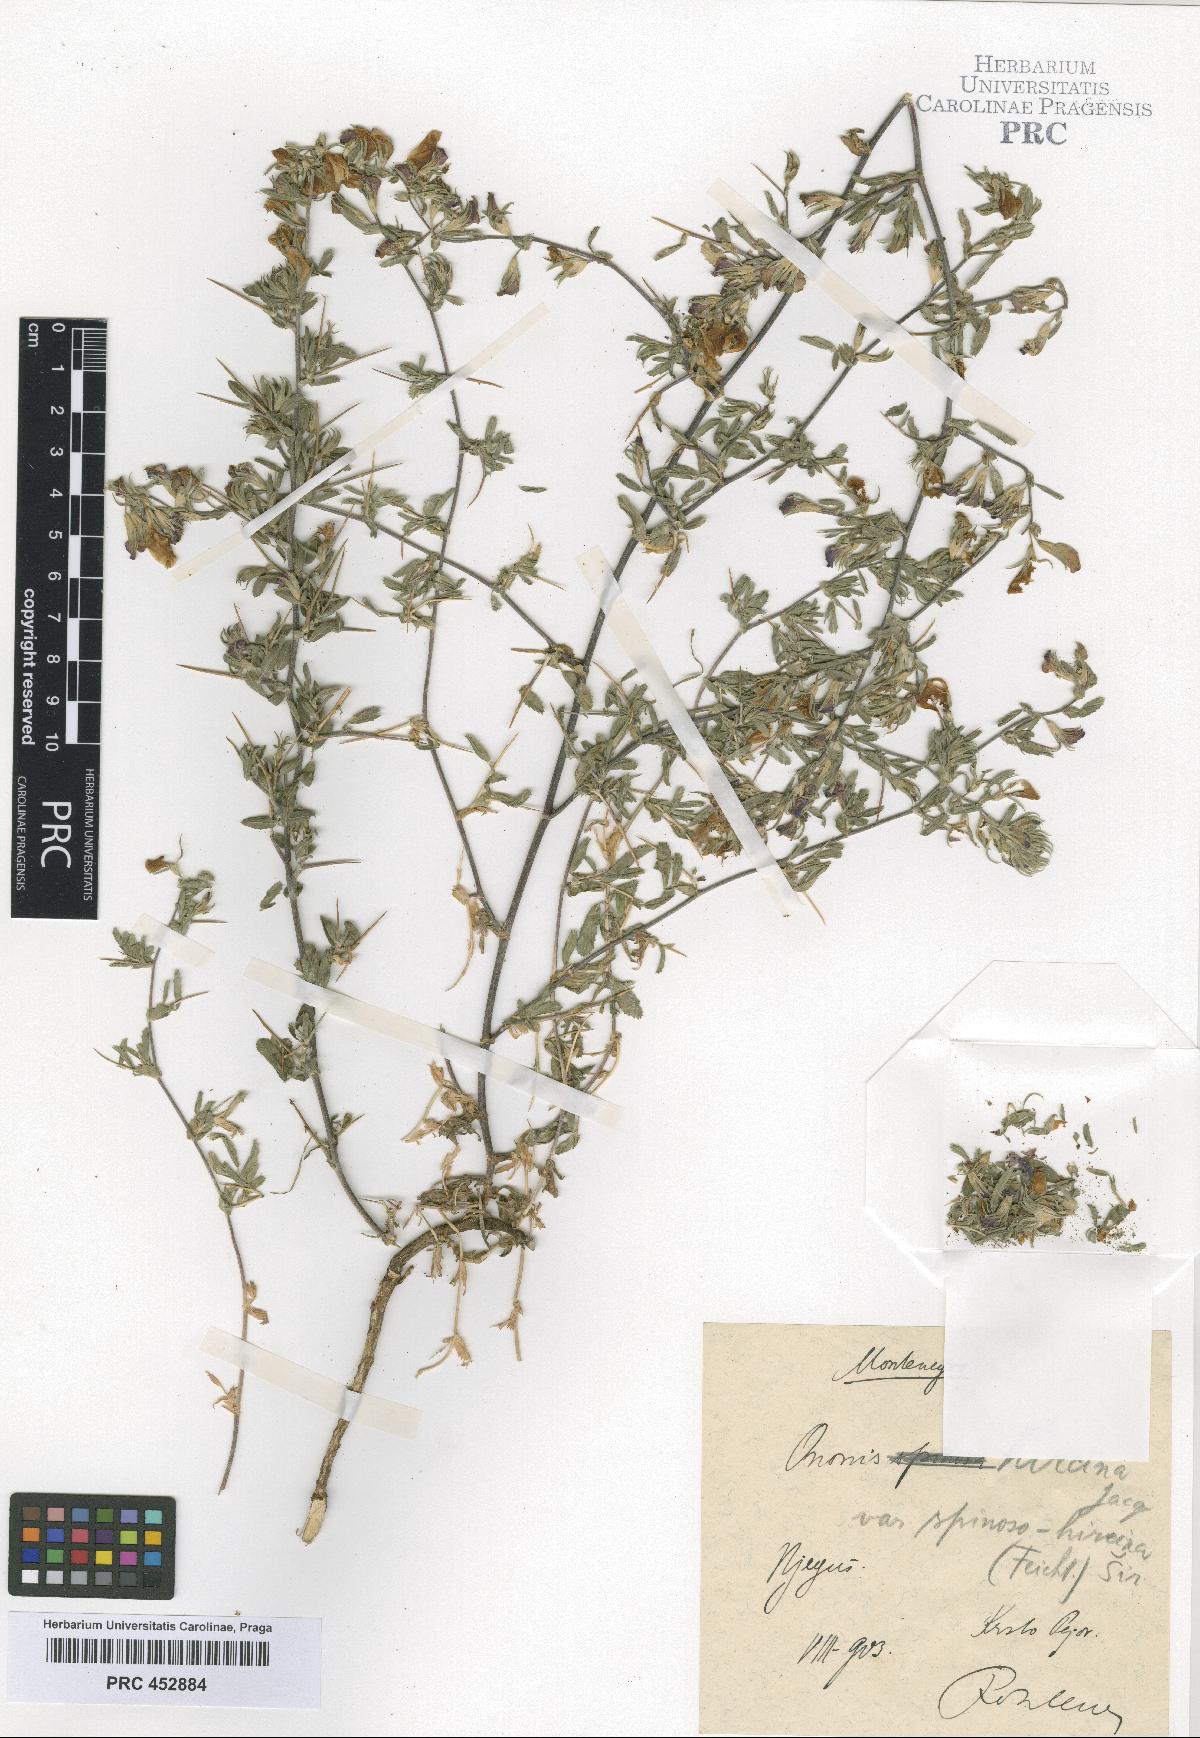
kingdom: Plantae
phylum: Tracheophyta
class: Magnoliopsida
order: Fabales
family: Fabaceae
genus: Ononis
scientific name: Ononis arvensis
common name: Field restharrow
